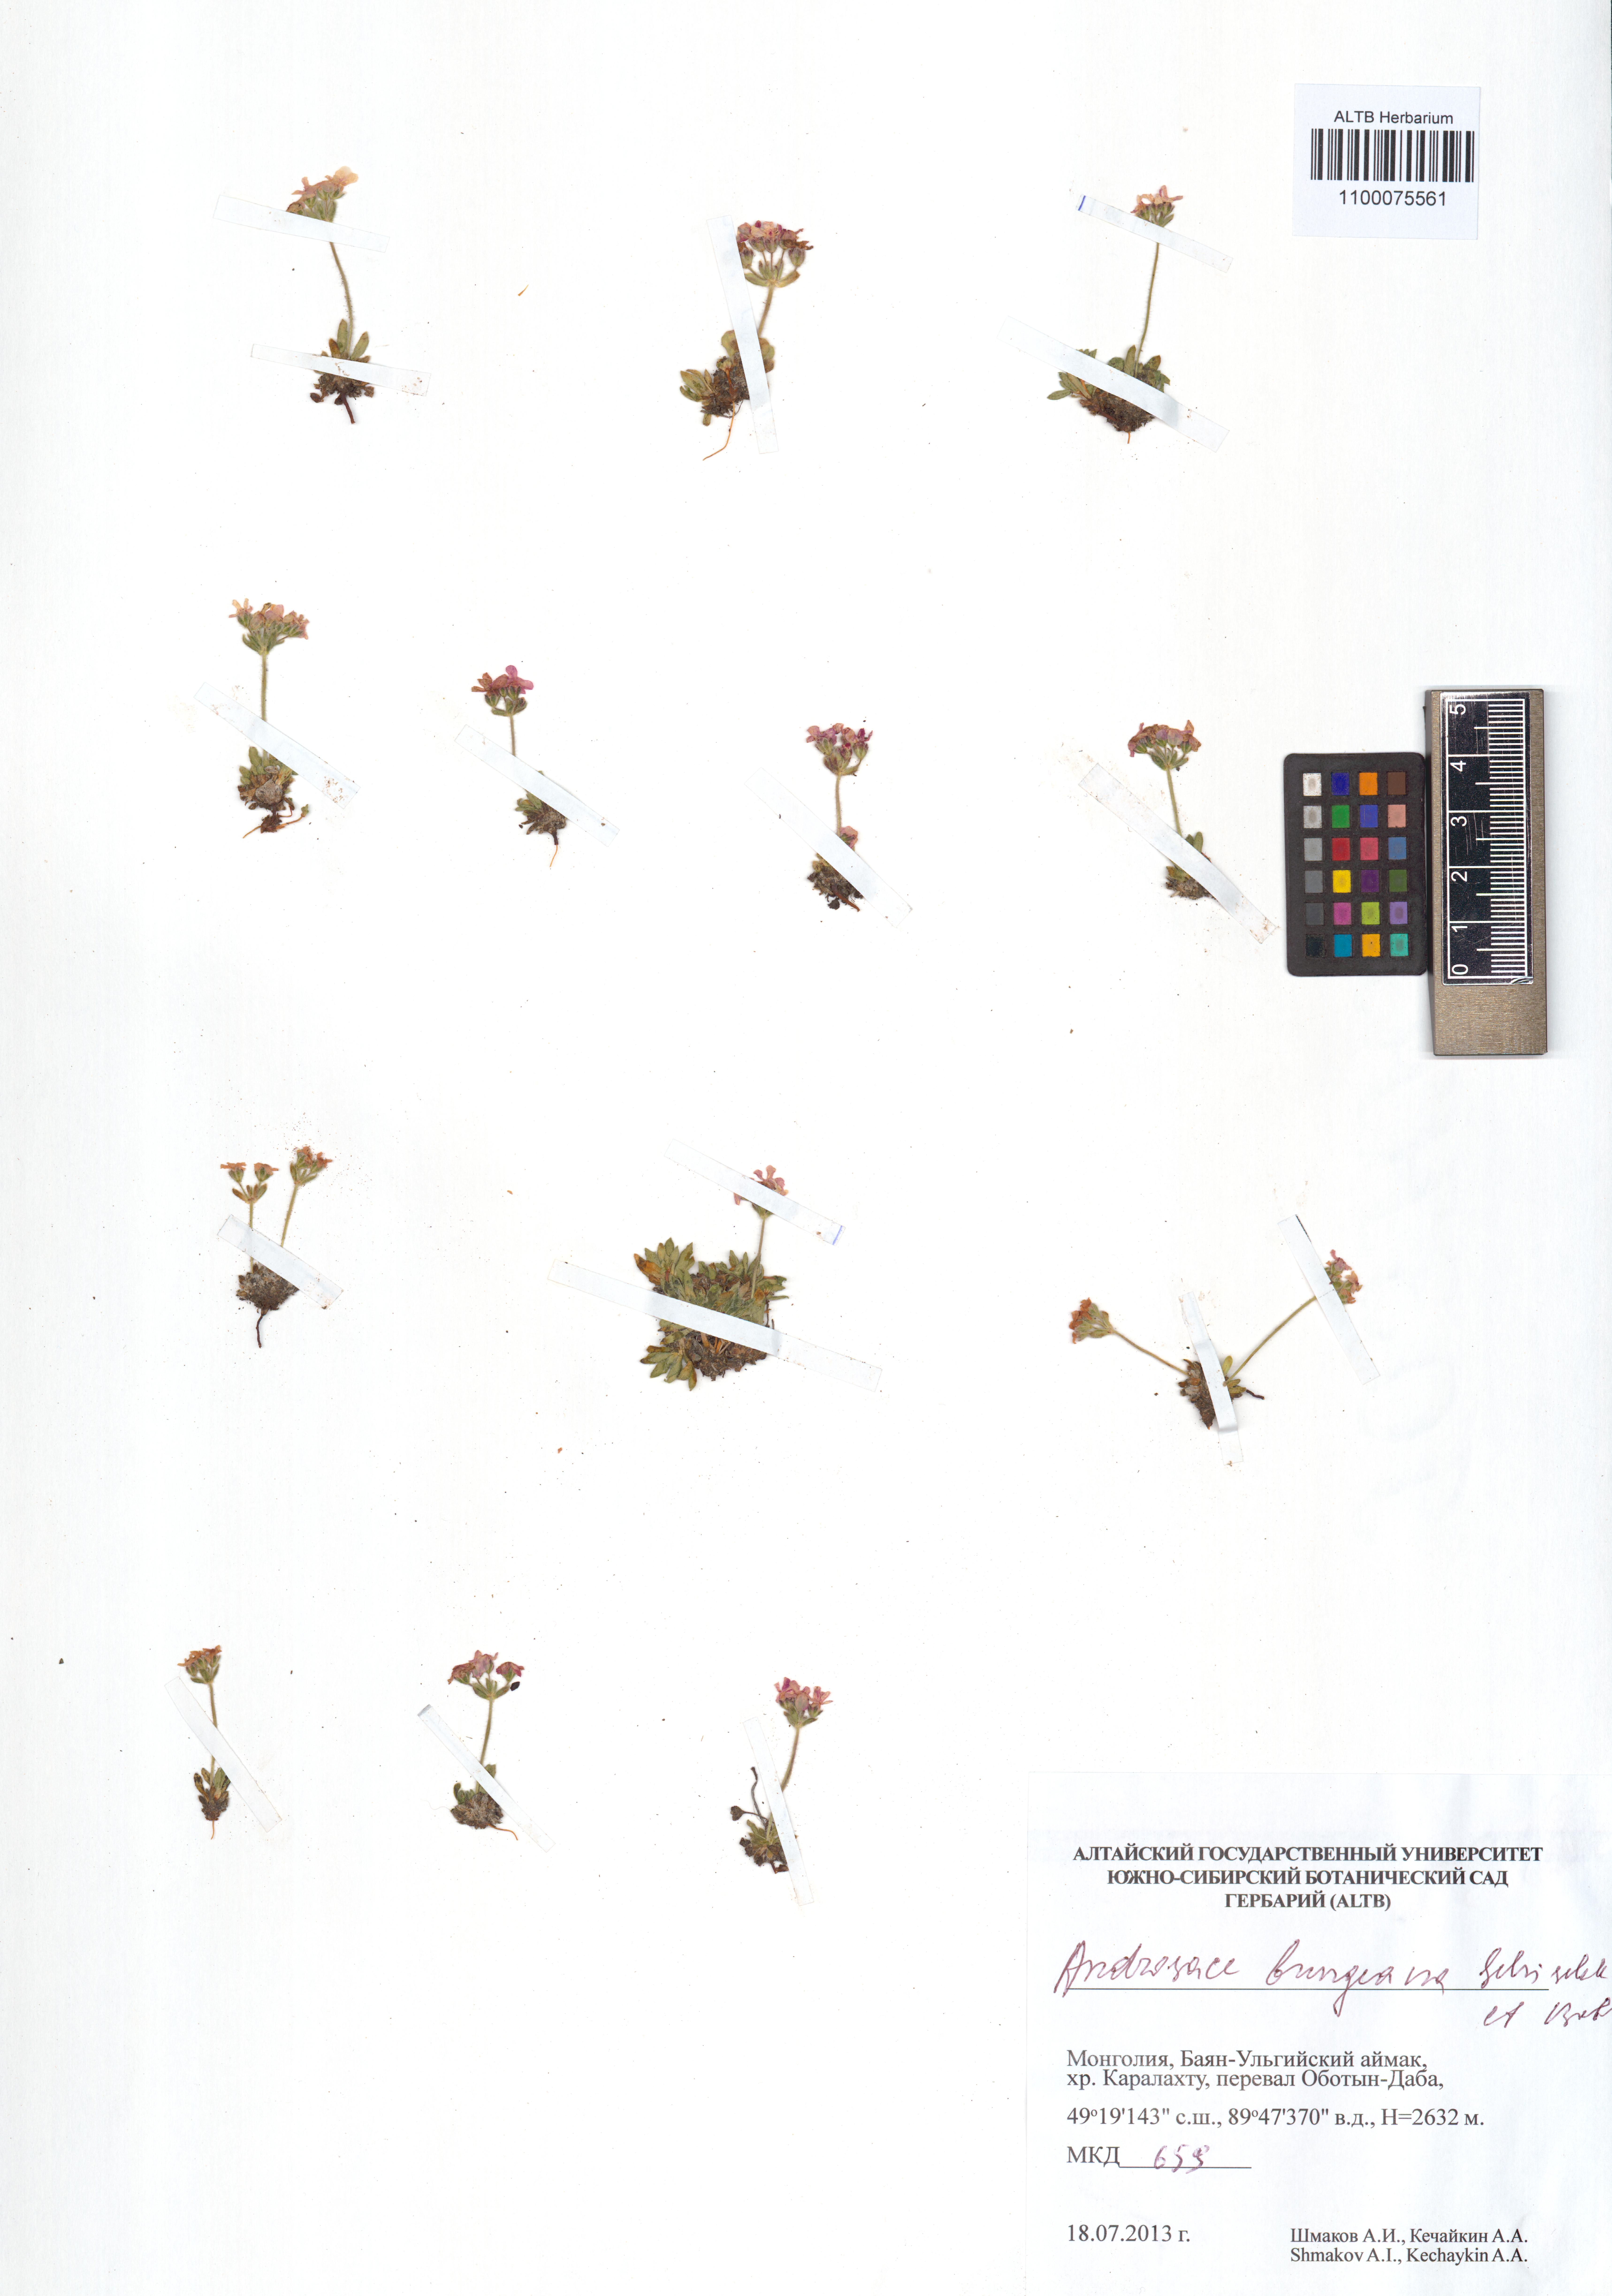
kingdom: Plantae
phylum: Tracheophyta
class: Magnoliopsida
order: Ericales
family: Primulaceae
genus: Androsace
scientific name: Androsace bungeana
